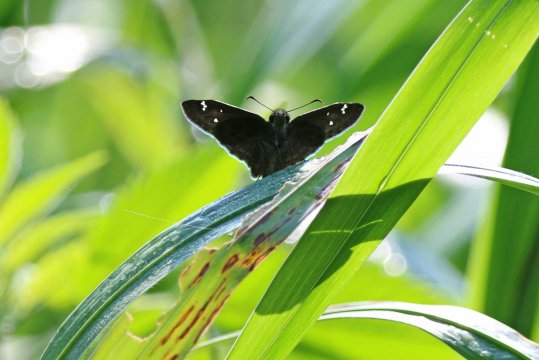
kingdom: Animalia
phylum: Arthropoda
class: Insecta
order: Lepidoptera
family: Hesperiidae
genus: Pholisora
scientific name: Pholisora catullus
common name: Common Sootywing
